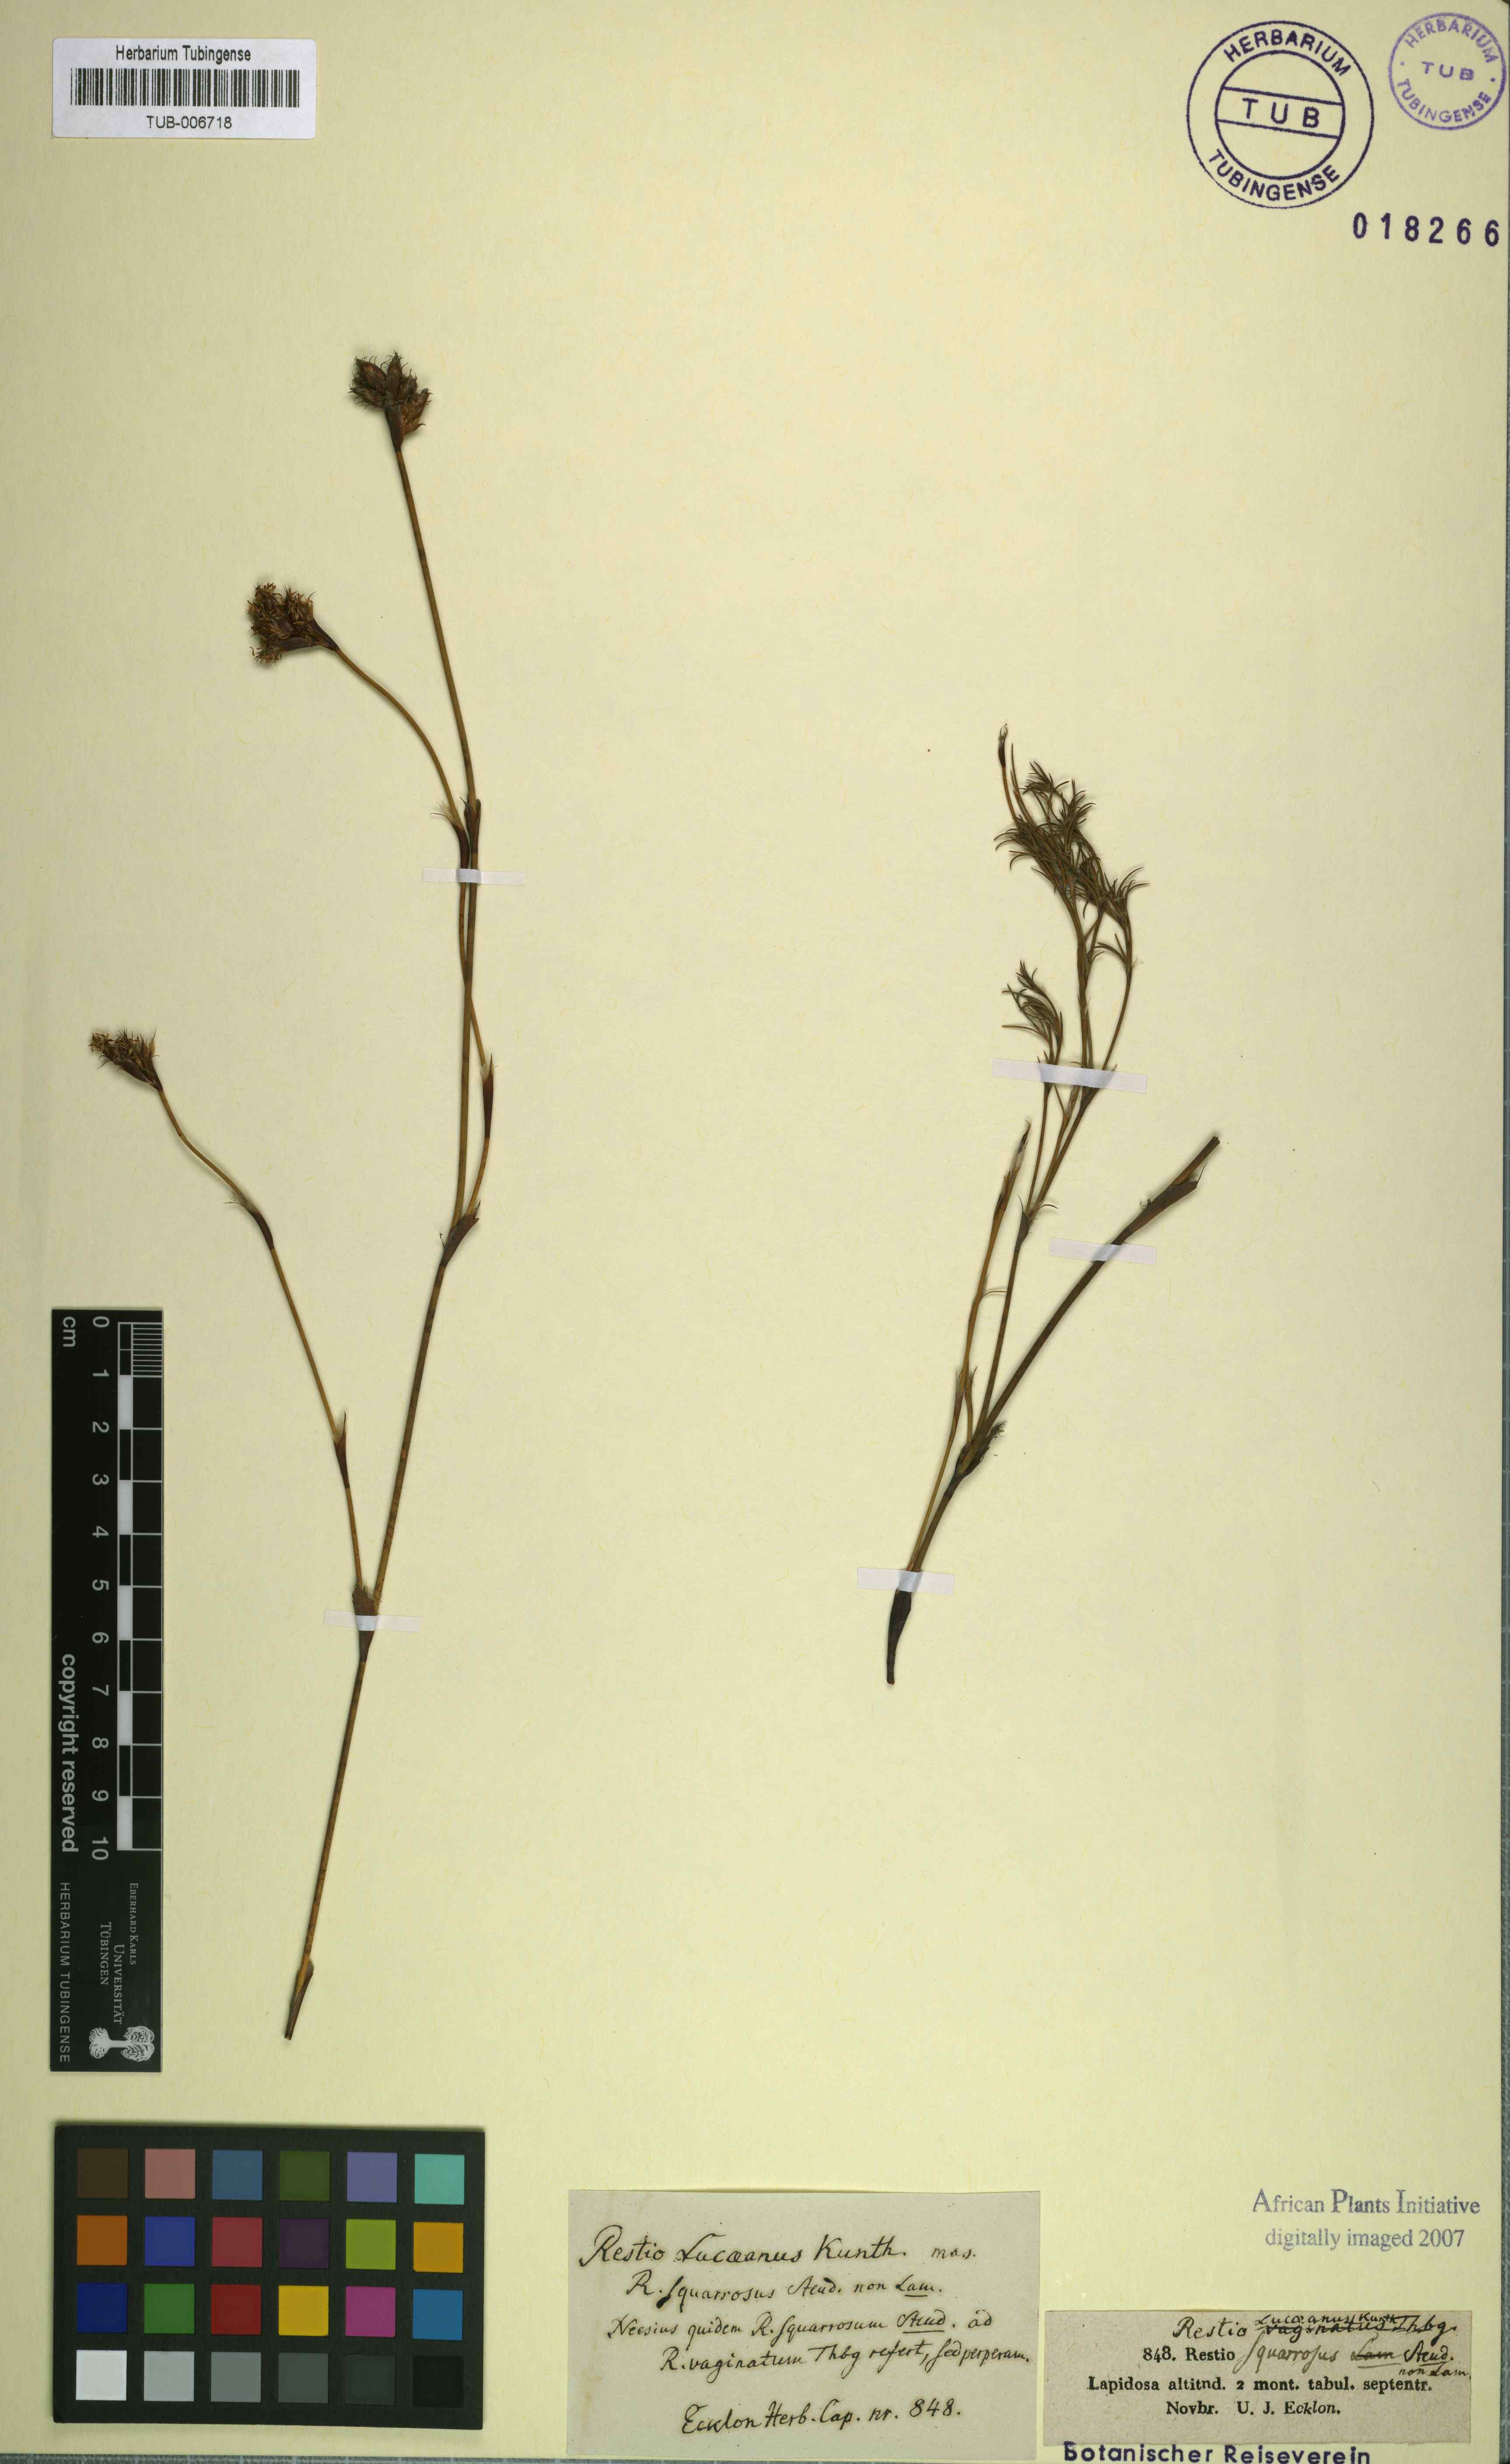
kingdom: Plantae
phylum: Tracheophyta
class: Liliopsida
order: Poales
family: Restionaceae
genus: Restio
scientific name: Restio capensis
